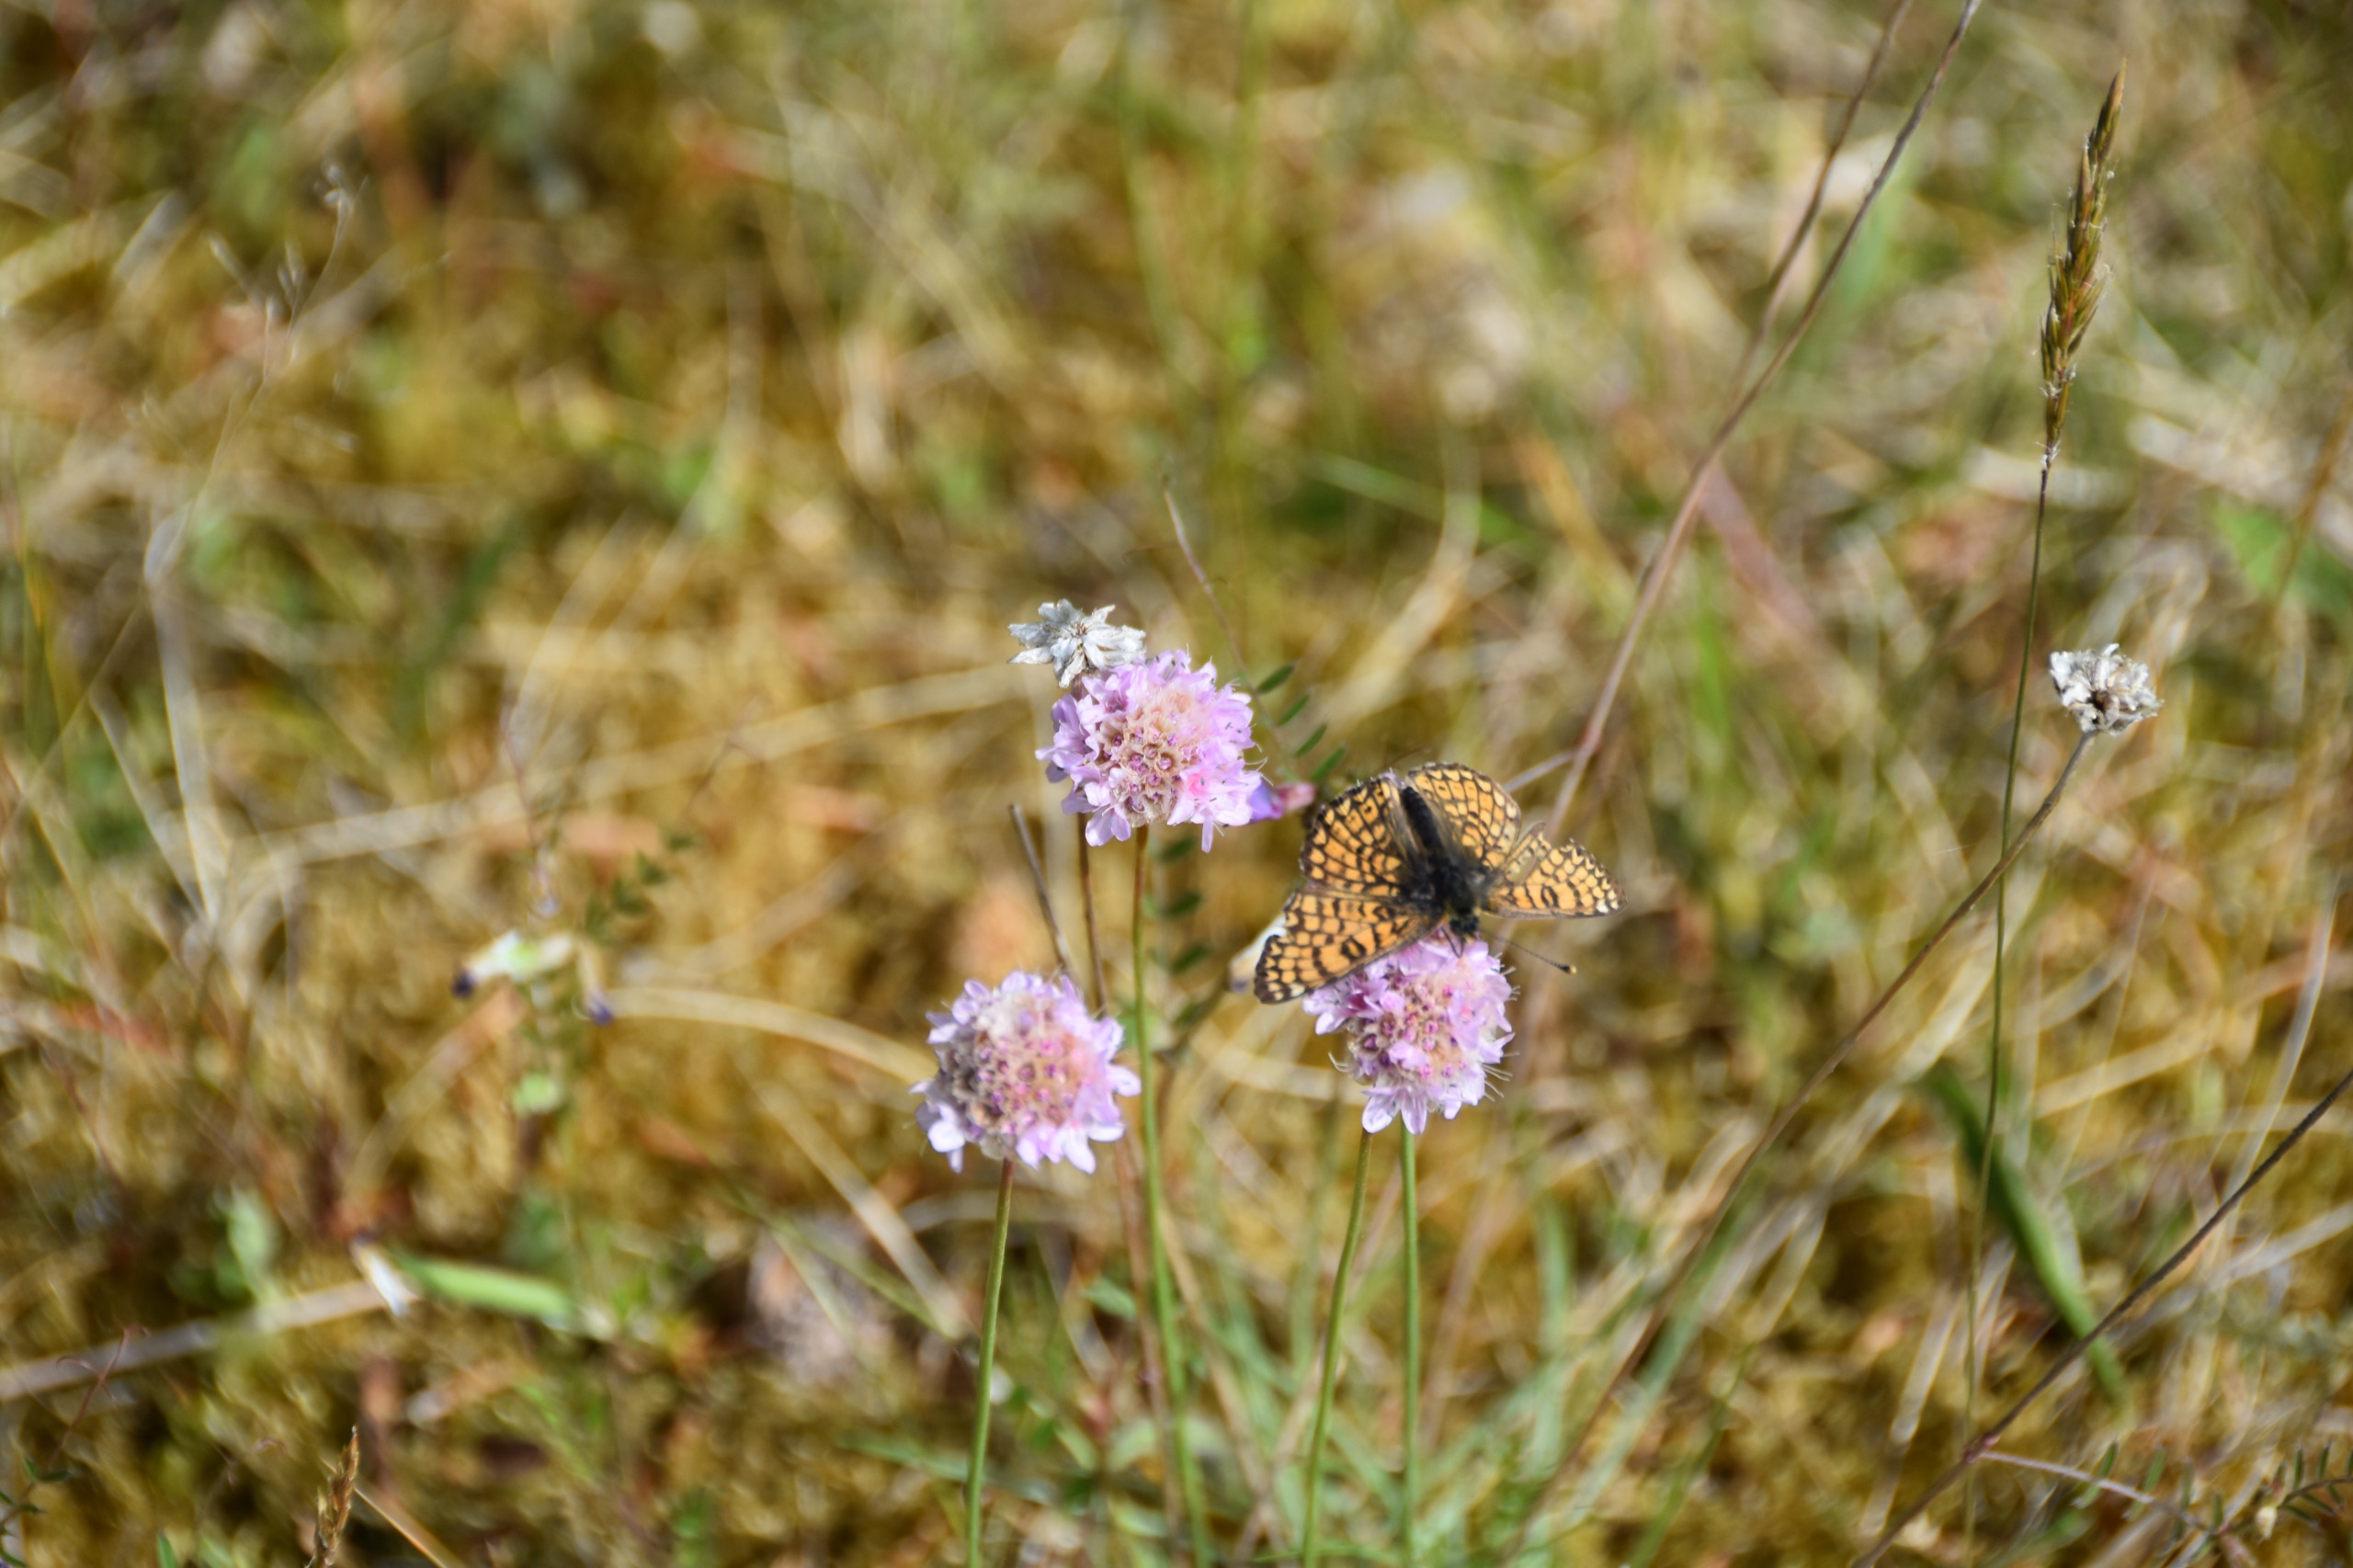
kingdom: Animalia
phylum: Arthropoda
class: Insecta
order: Lepidoptera
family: Nymphalidae
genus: Melitaea
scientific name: Melitaea cinxia
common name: Okkergul pletvinge
